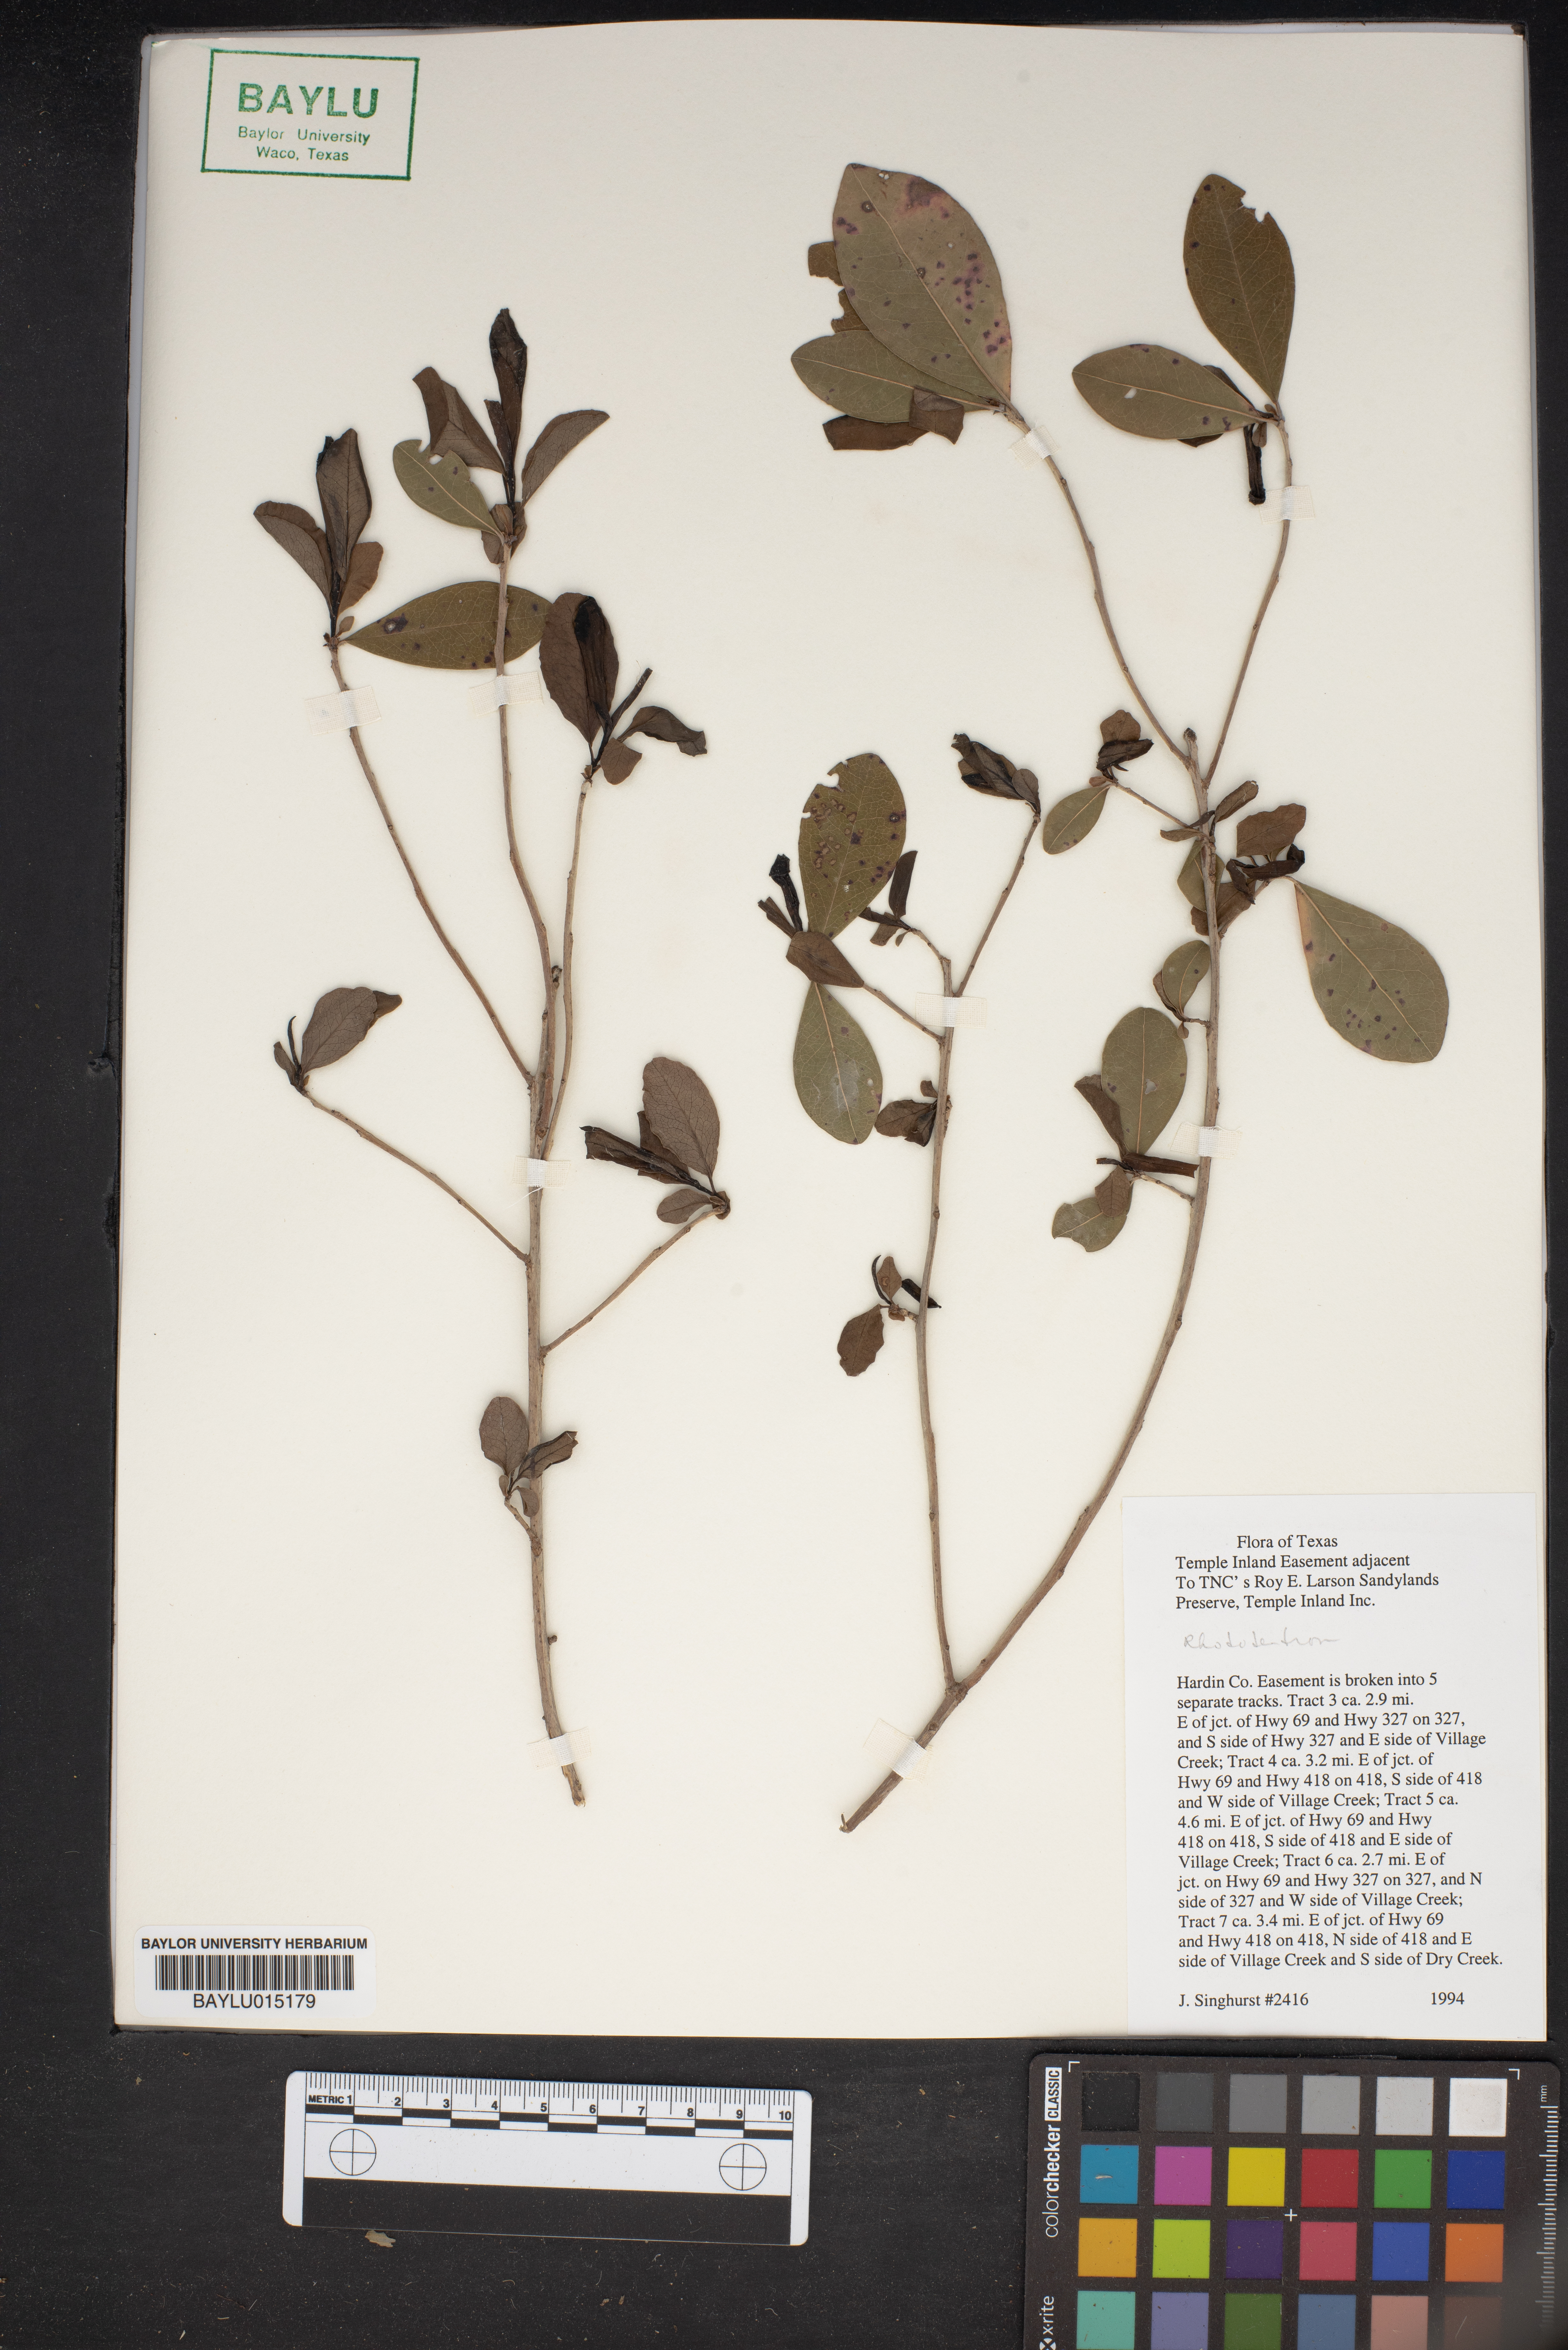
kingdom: Plantae
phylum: Tracheophyta
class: Magnoliopsida
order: Ericales
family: Ericaceae
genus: Rhododendron
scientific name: Rhododendron
